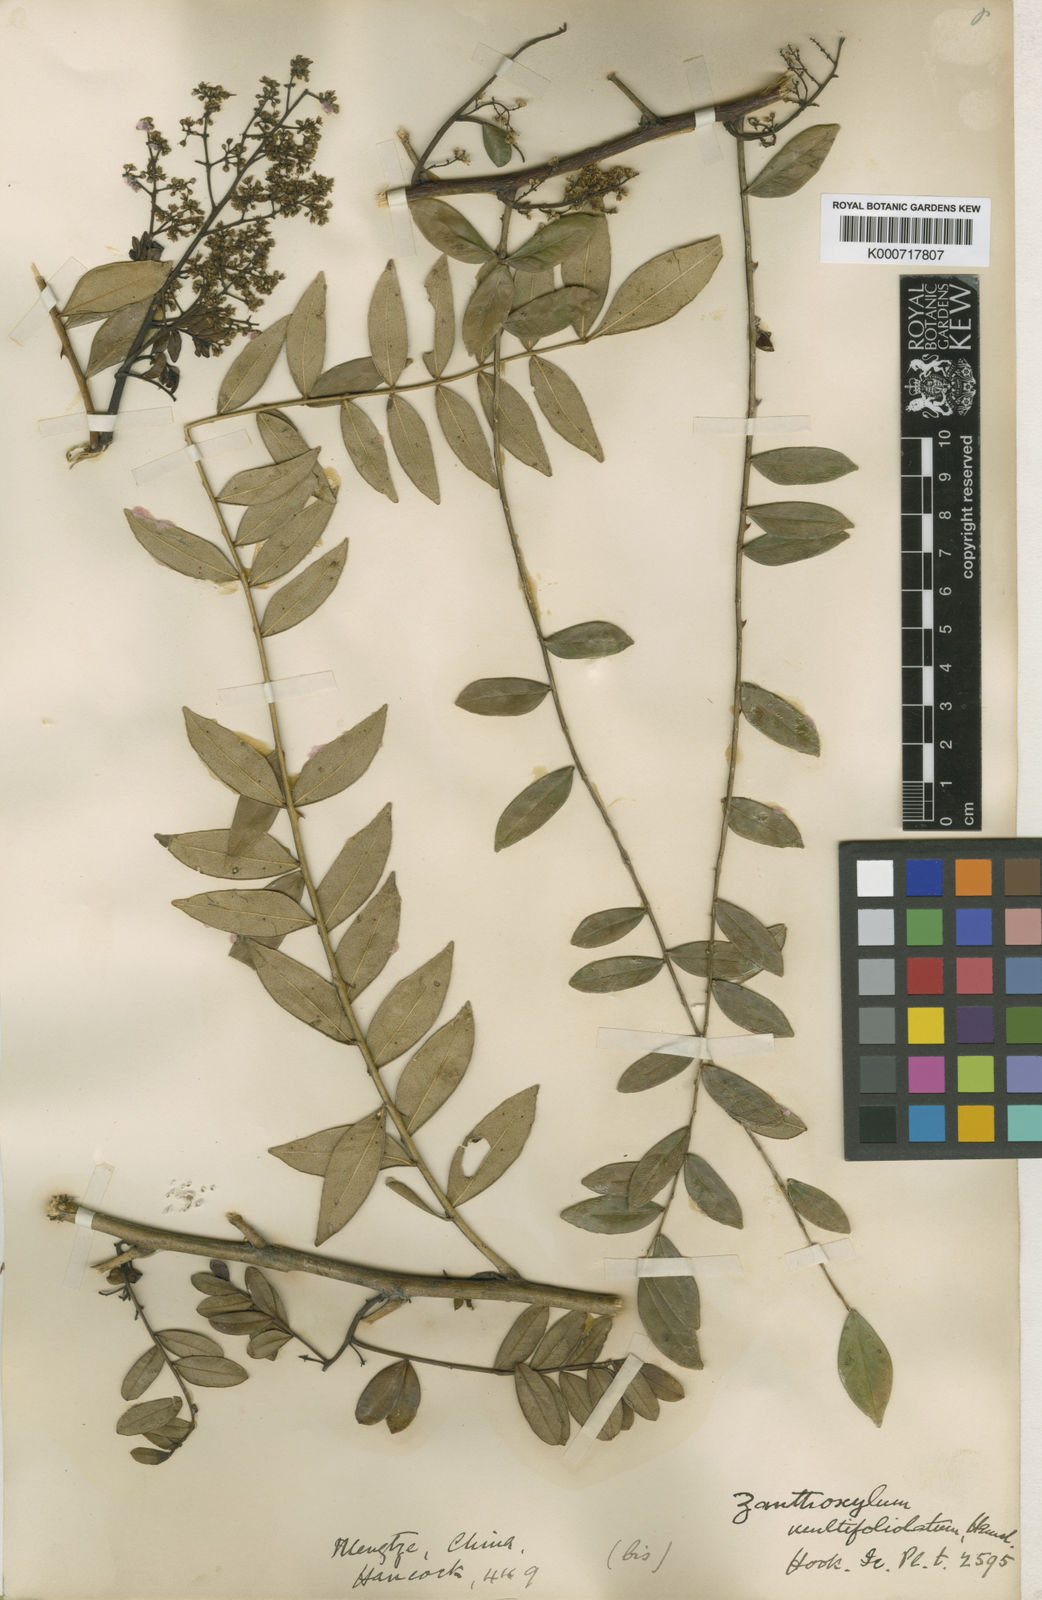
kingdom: Plantae
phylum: Tracheophyta
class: Magnoliopsida
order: Sapindales
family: Rutaceae
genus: Zanthoxylum
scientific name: Zanthoxylum multijugum
